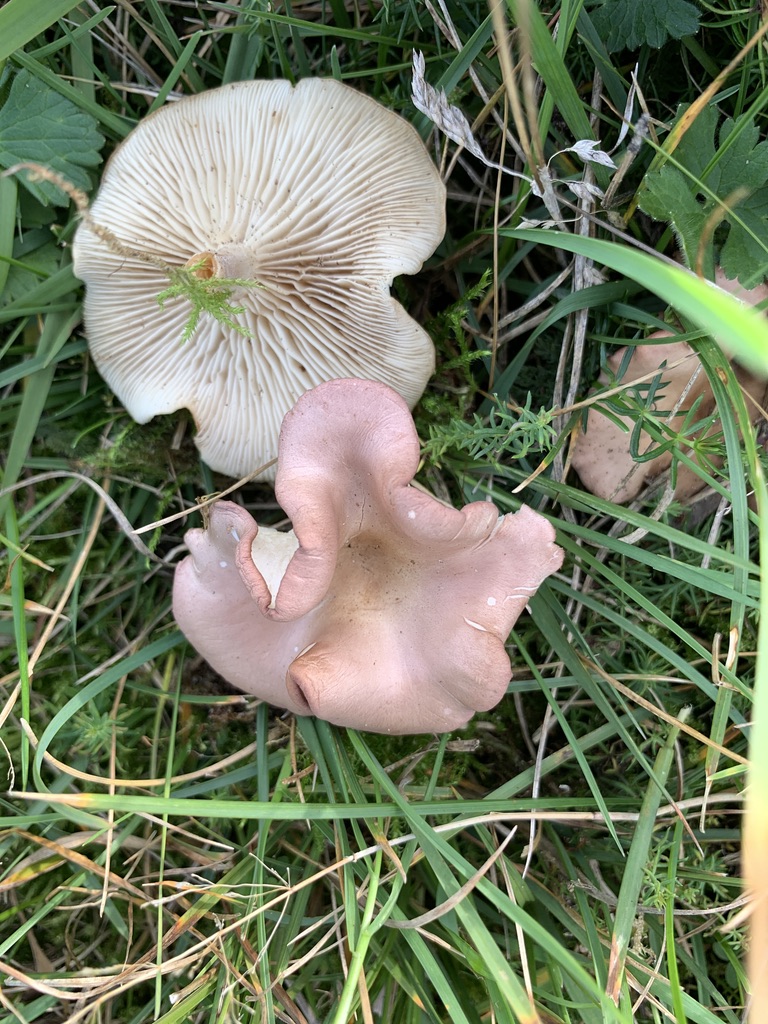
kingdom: Fungi
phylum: Basidiomycota
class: Agaricomycetes
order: Agaricales
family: Lyophyllaceae
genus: Calocybe
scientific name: Calocybe carnea
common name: rosa fagerhat
